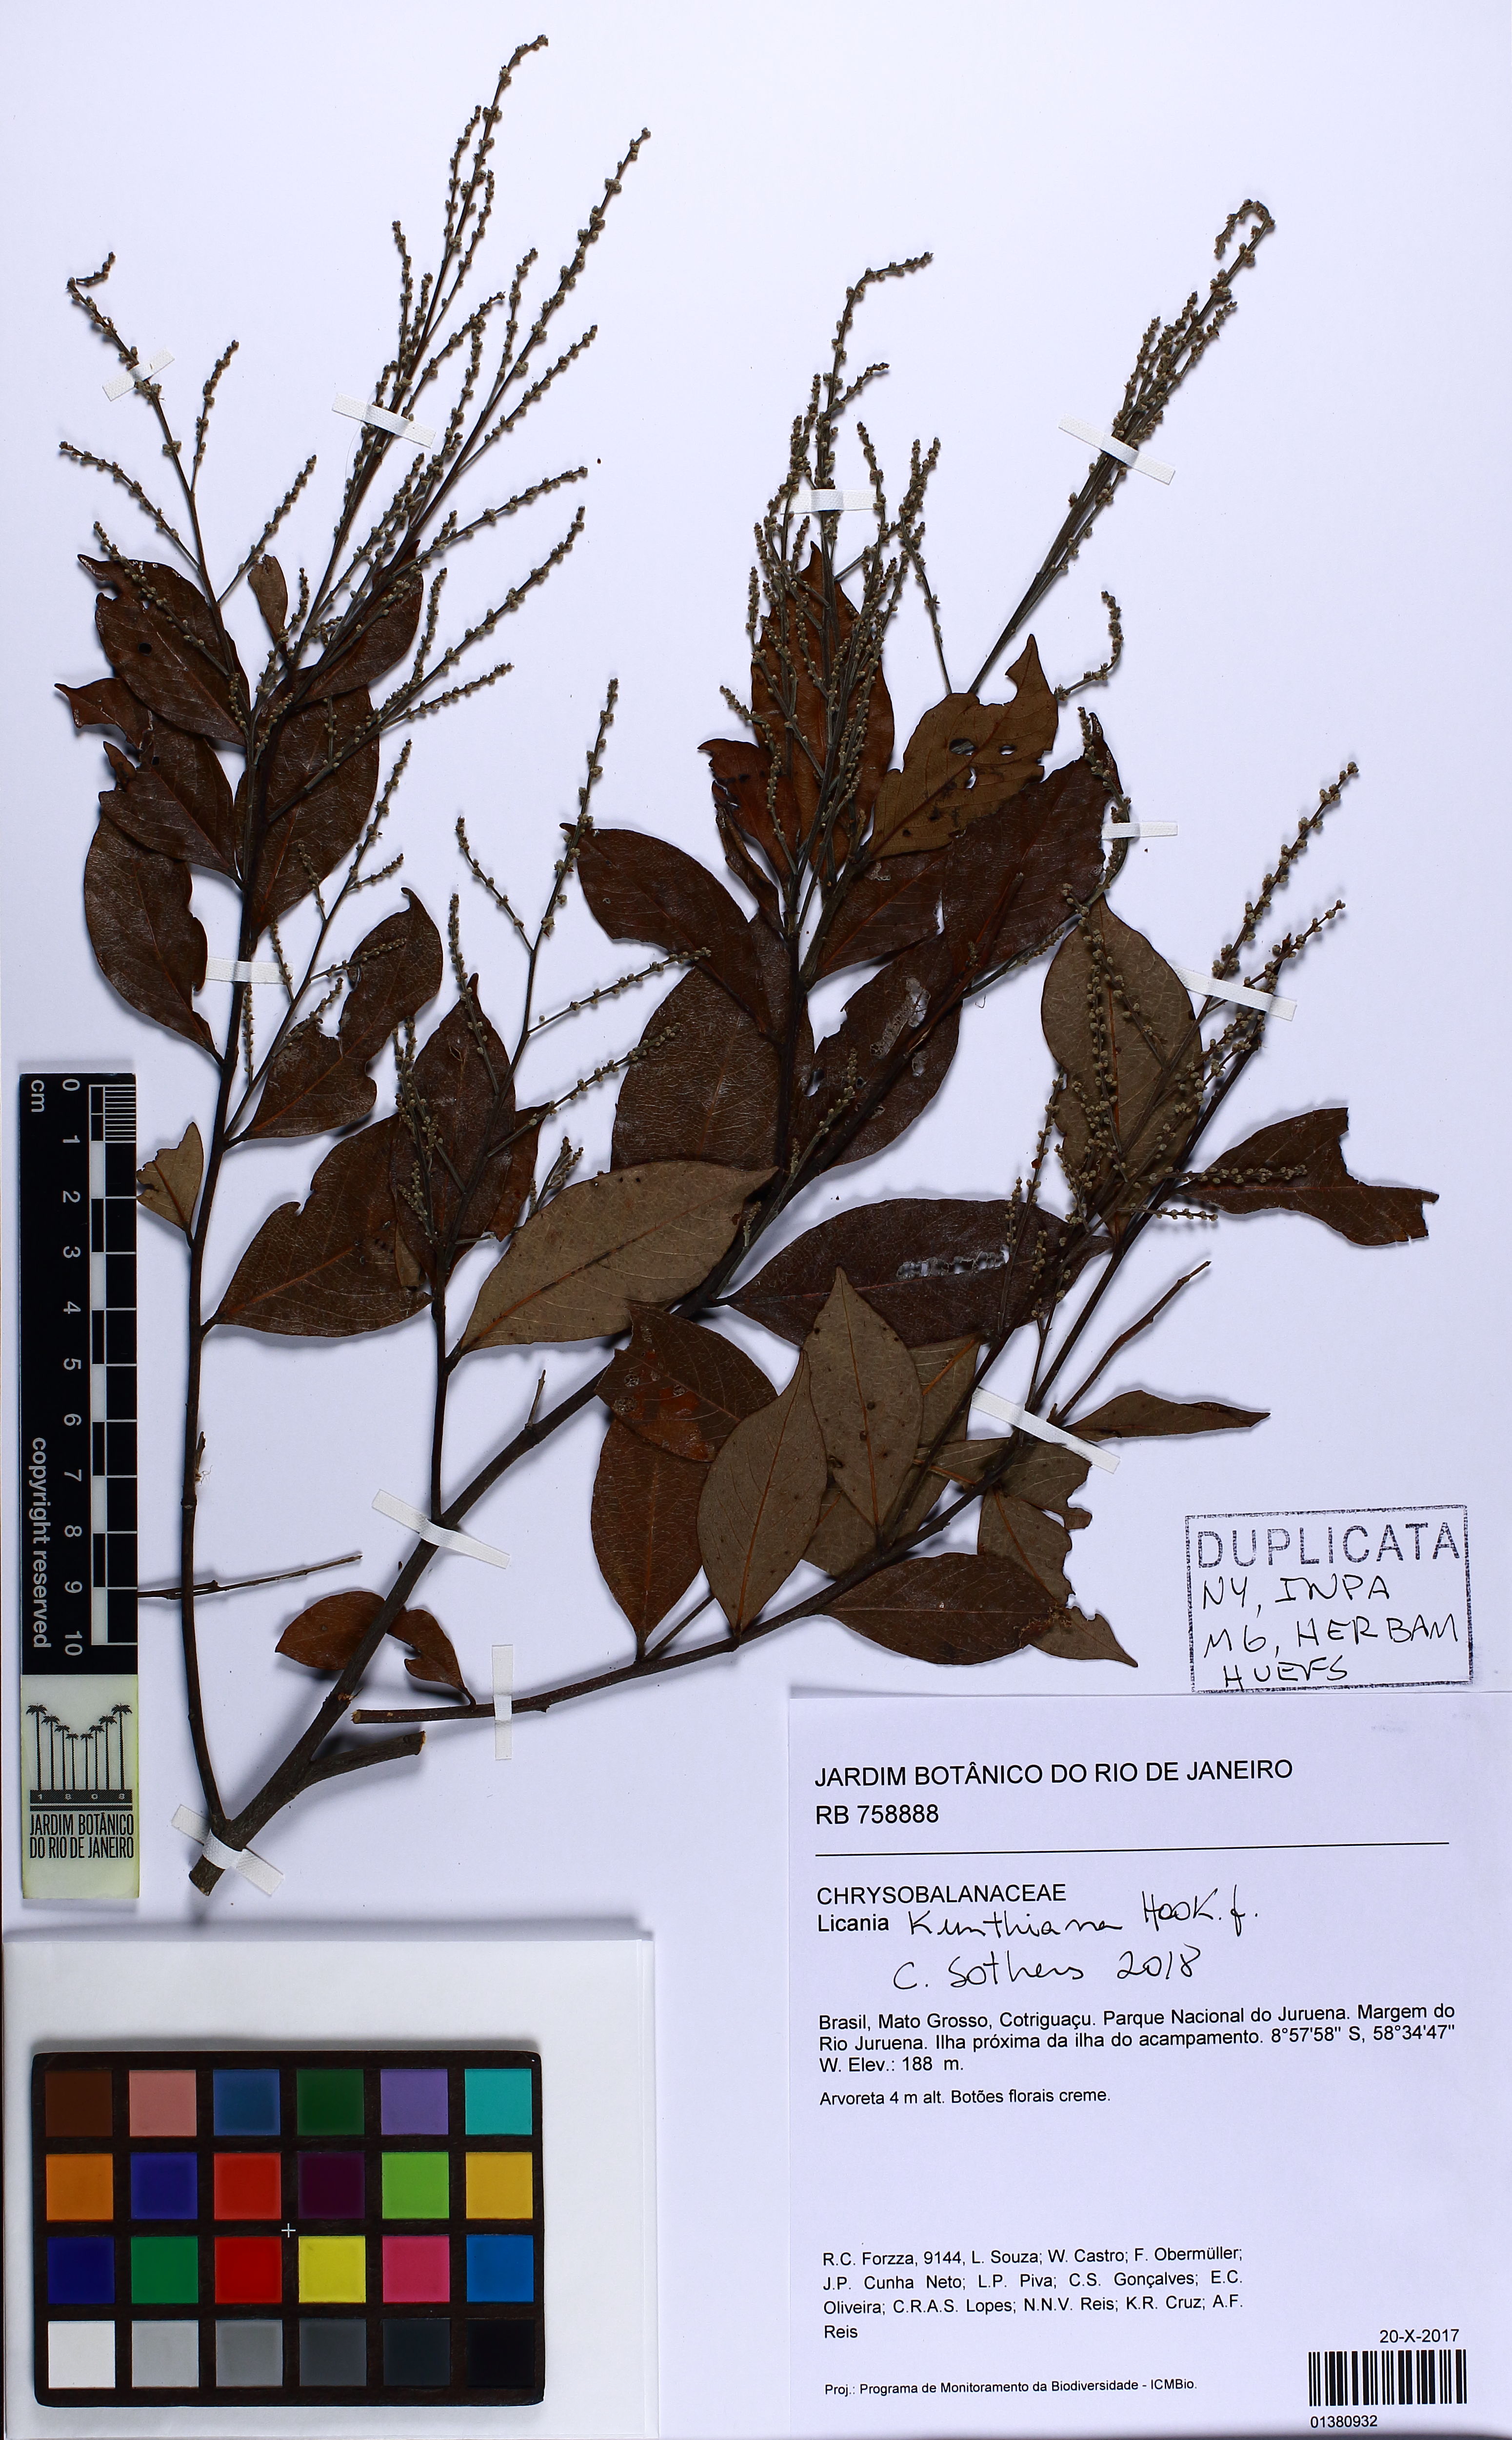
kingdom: Plantae
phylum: Tracheophyta
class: Magnoliopsida
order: Malpighiales
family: Chrysobalanaceae
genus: Licania
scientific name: Licania kunthiana
